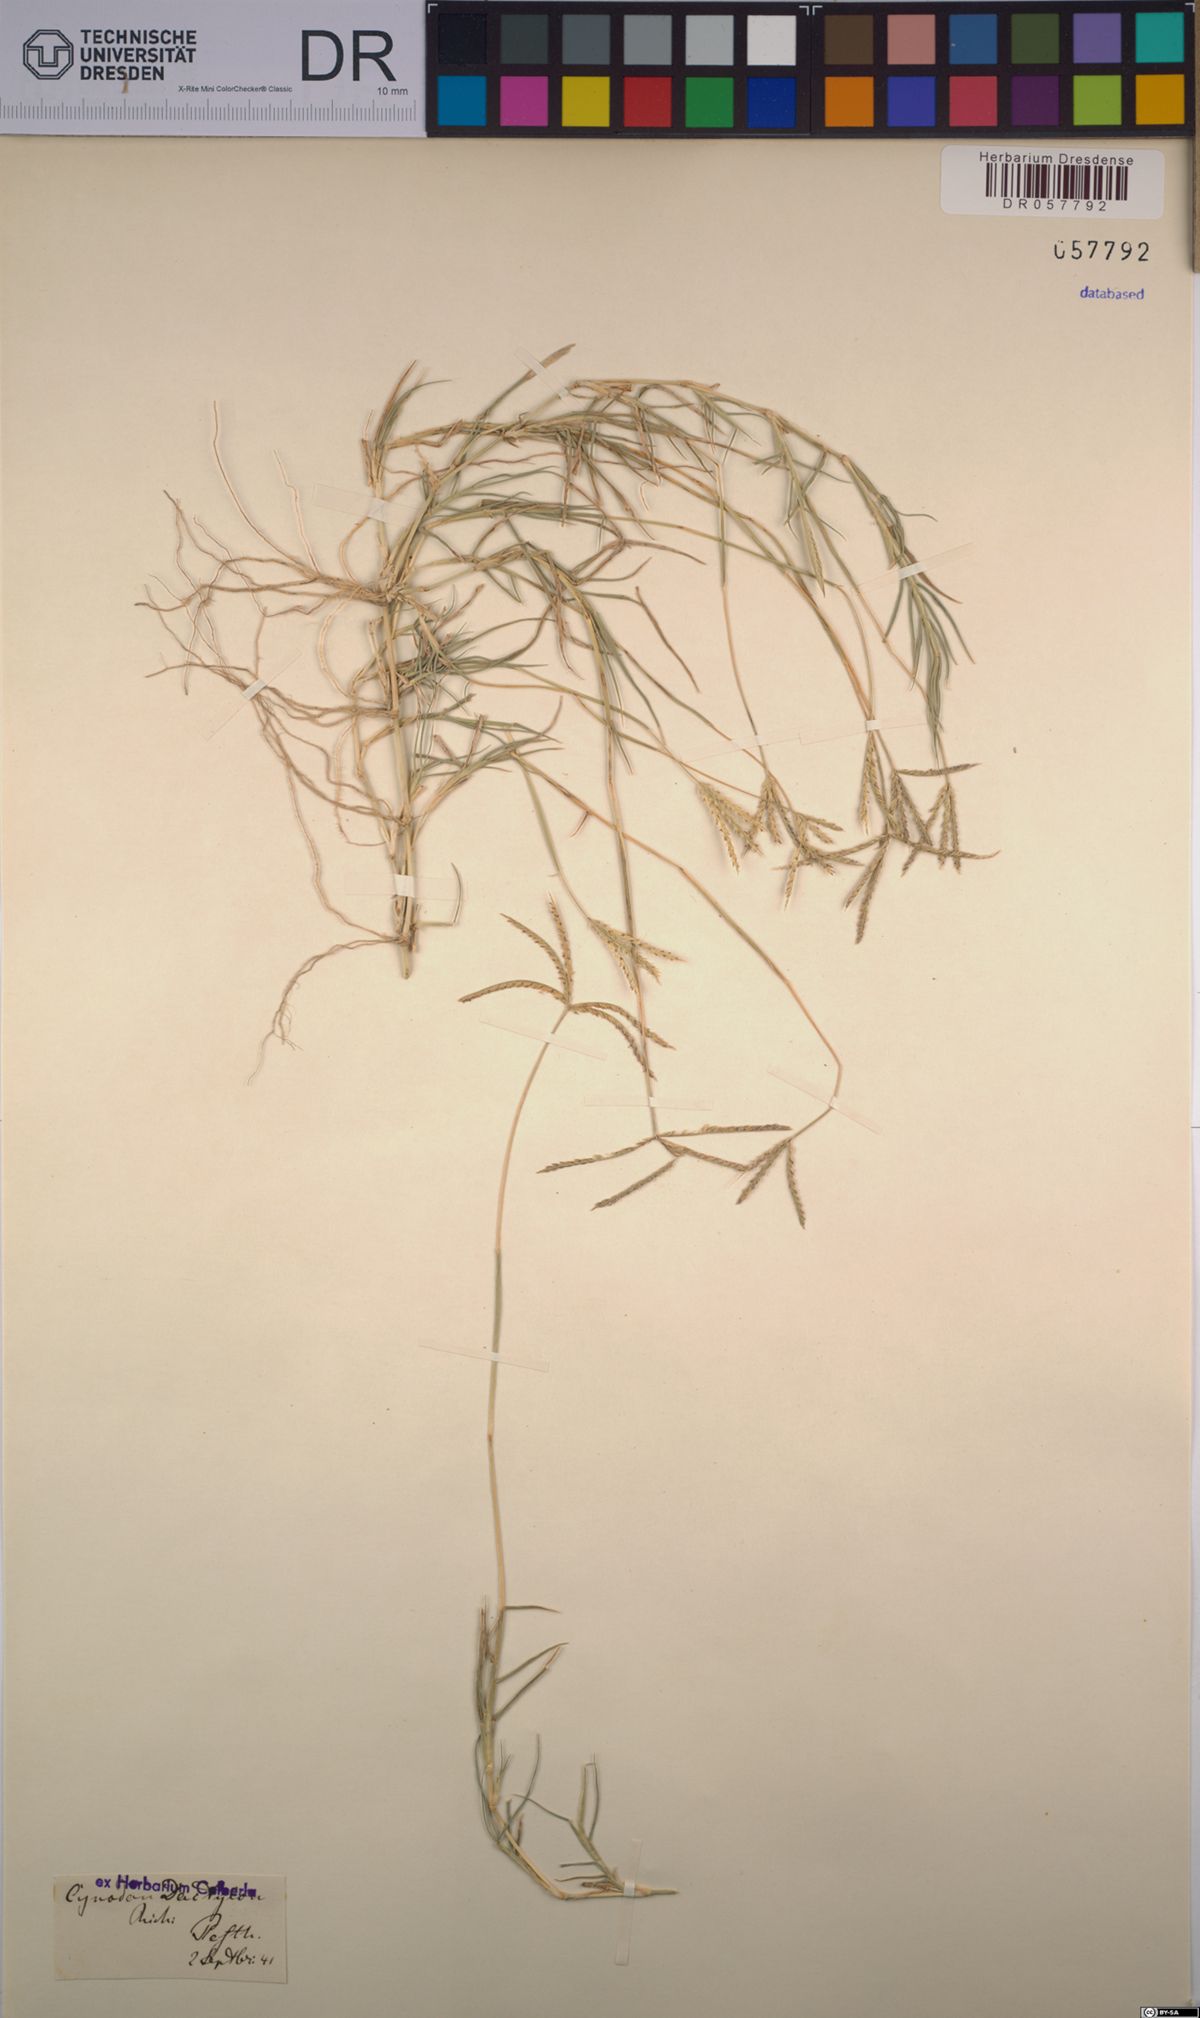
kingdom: Plantae
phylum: Tracheophyta
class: Liliopsida
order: Poales
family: Poaceae
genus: Cynodon
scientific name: Cynodon dactylon
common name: Bermuda grass
